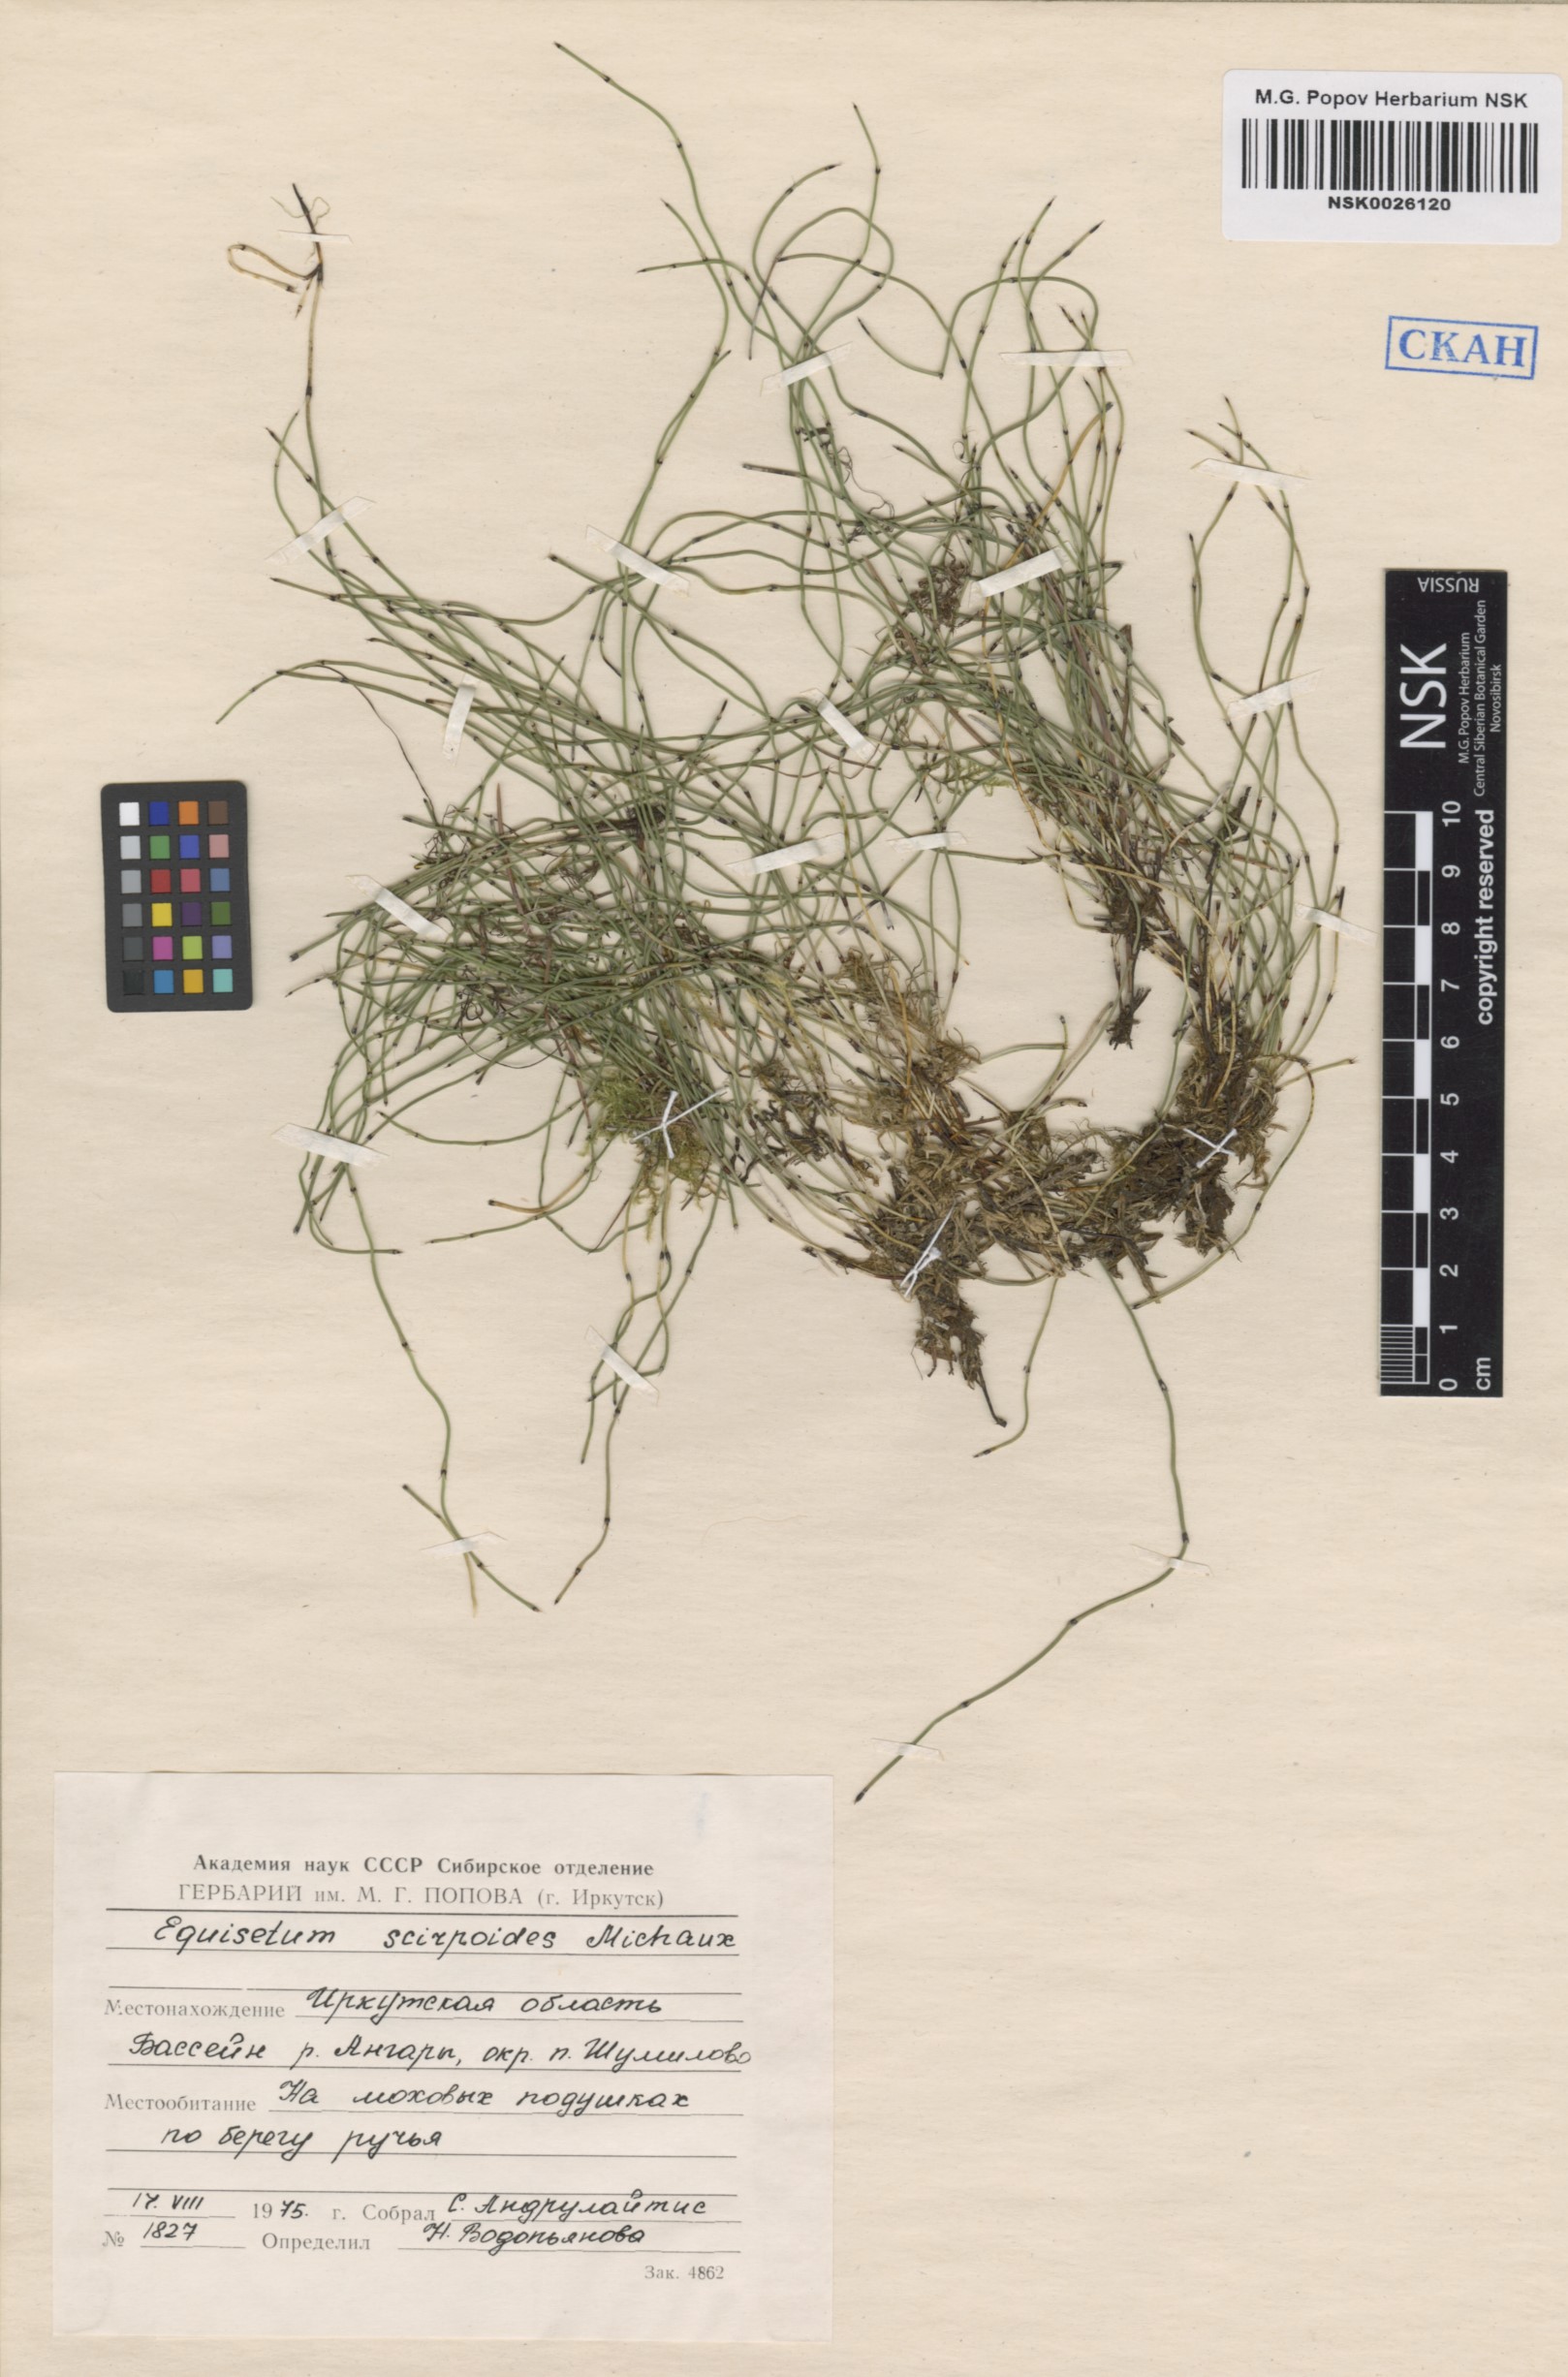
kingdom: Plantae
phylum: Tracheophyta
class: Polypodiopsida
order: Equisetales
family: Equisetaceae
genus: Equisetum
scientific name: Equisetum scirpoides
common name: Delicate horsetail
